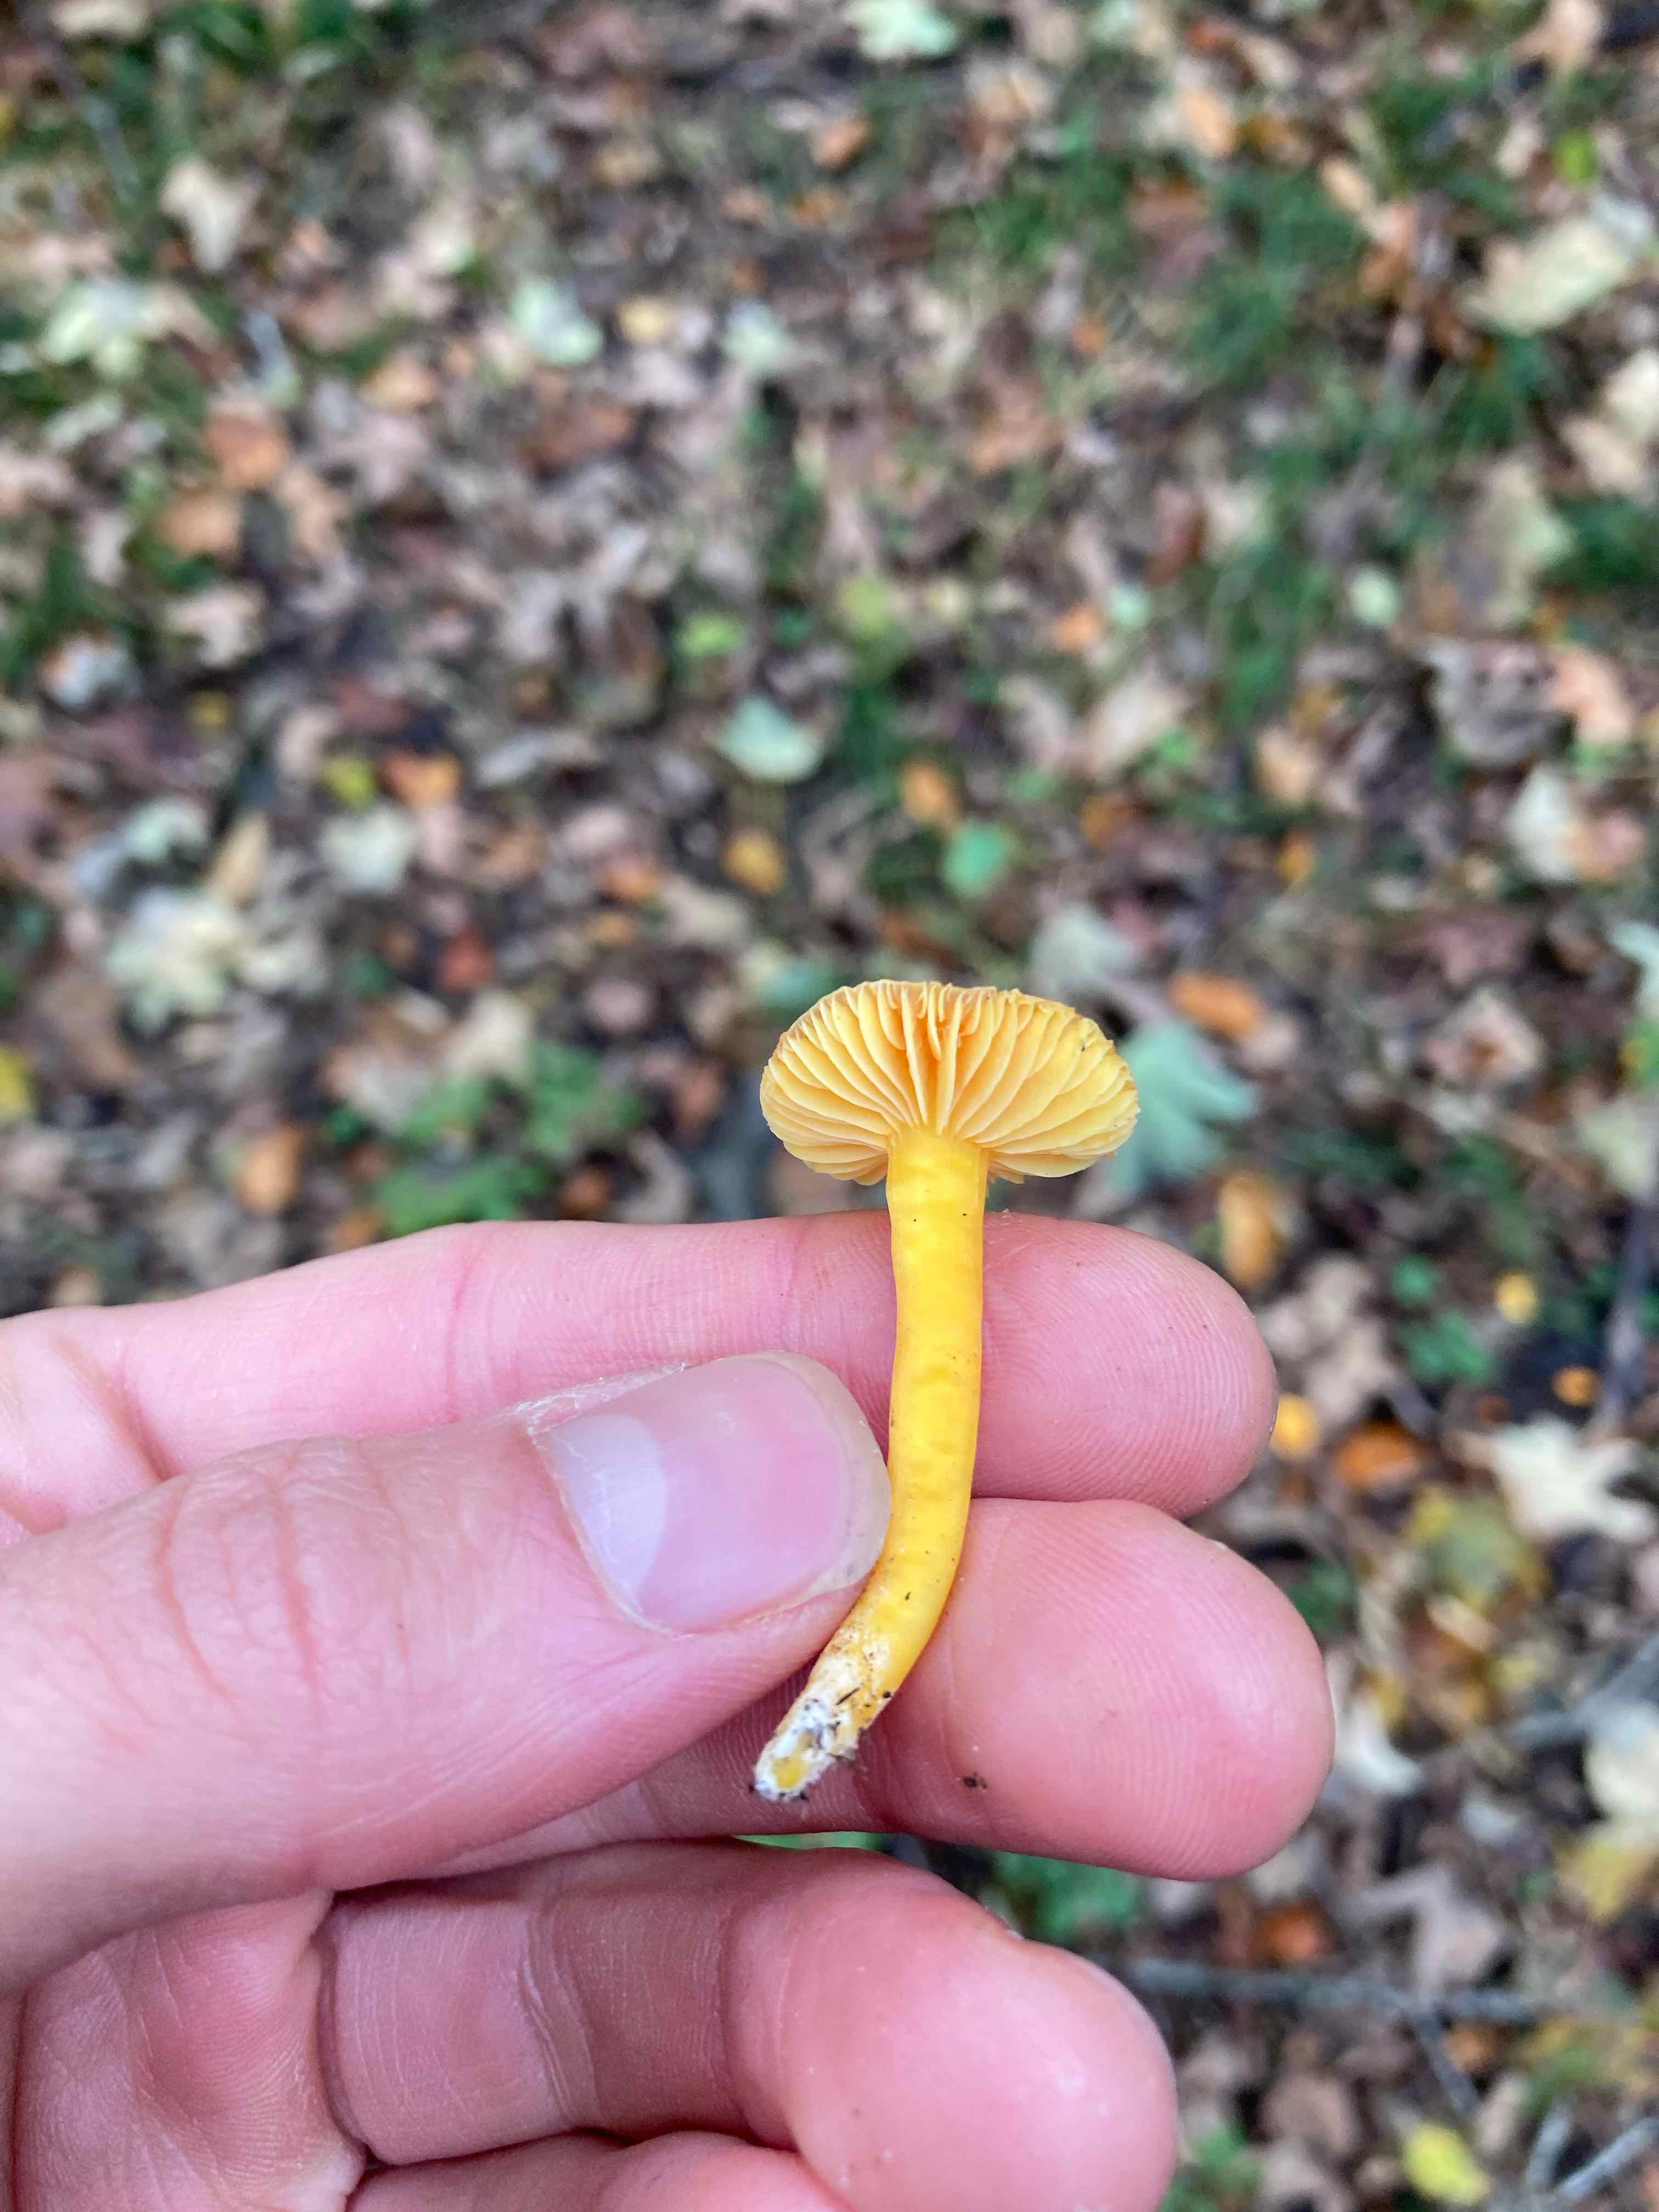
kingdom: Fungi
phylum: Basidiomycota
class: Agaricomycetes
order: Agaricales
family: Hygrophoraceae
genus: Hygrocybe
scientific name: Hygrocybe ceracea
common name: voksgul vokshat
